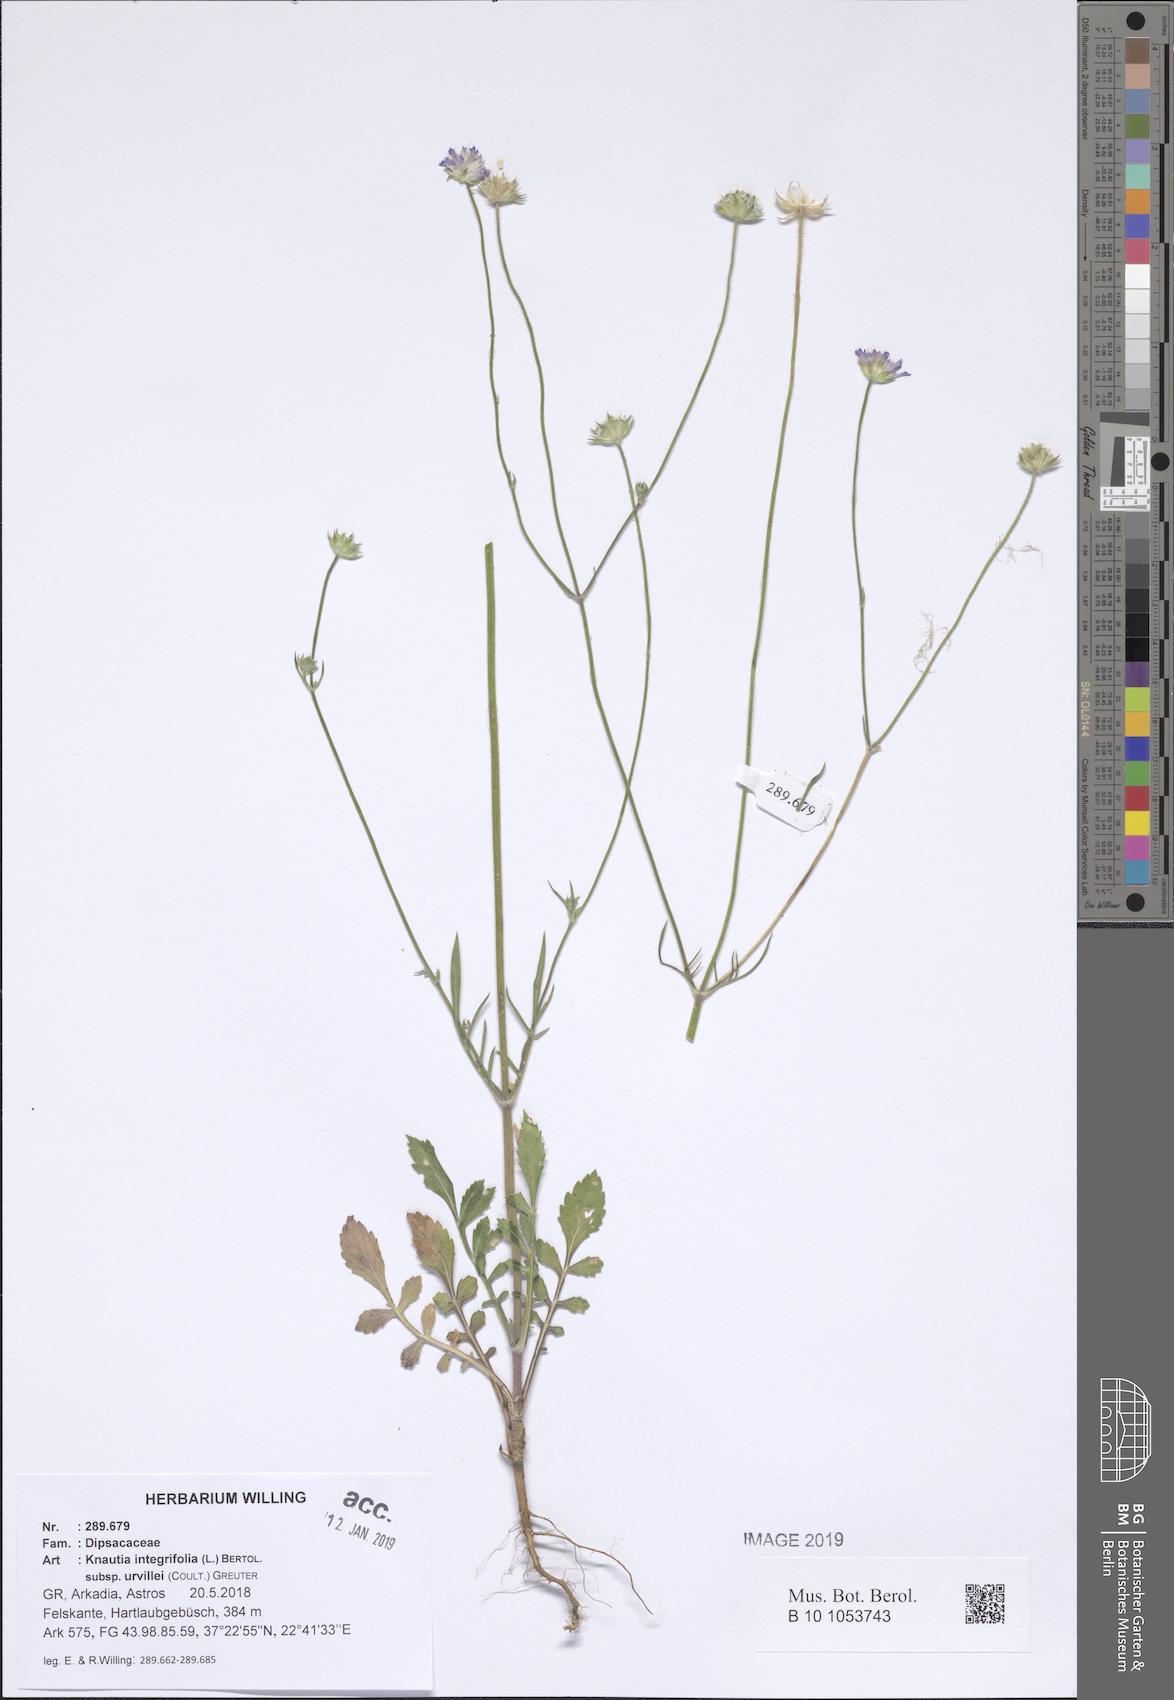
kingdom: Plantae
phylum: Tracheophyta
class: Magnoliopsida
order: Dipsacales
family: Caprifoliaceae
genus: Knautia
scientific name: Knautia integrifolia
